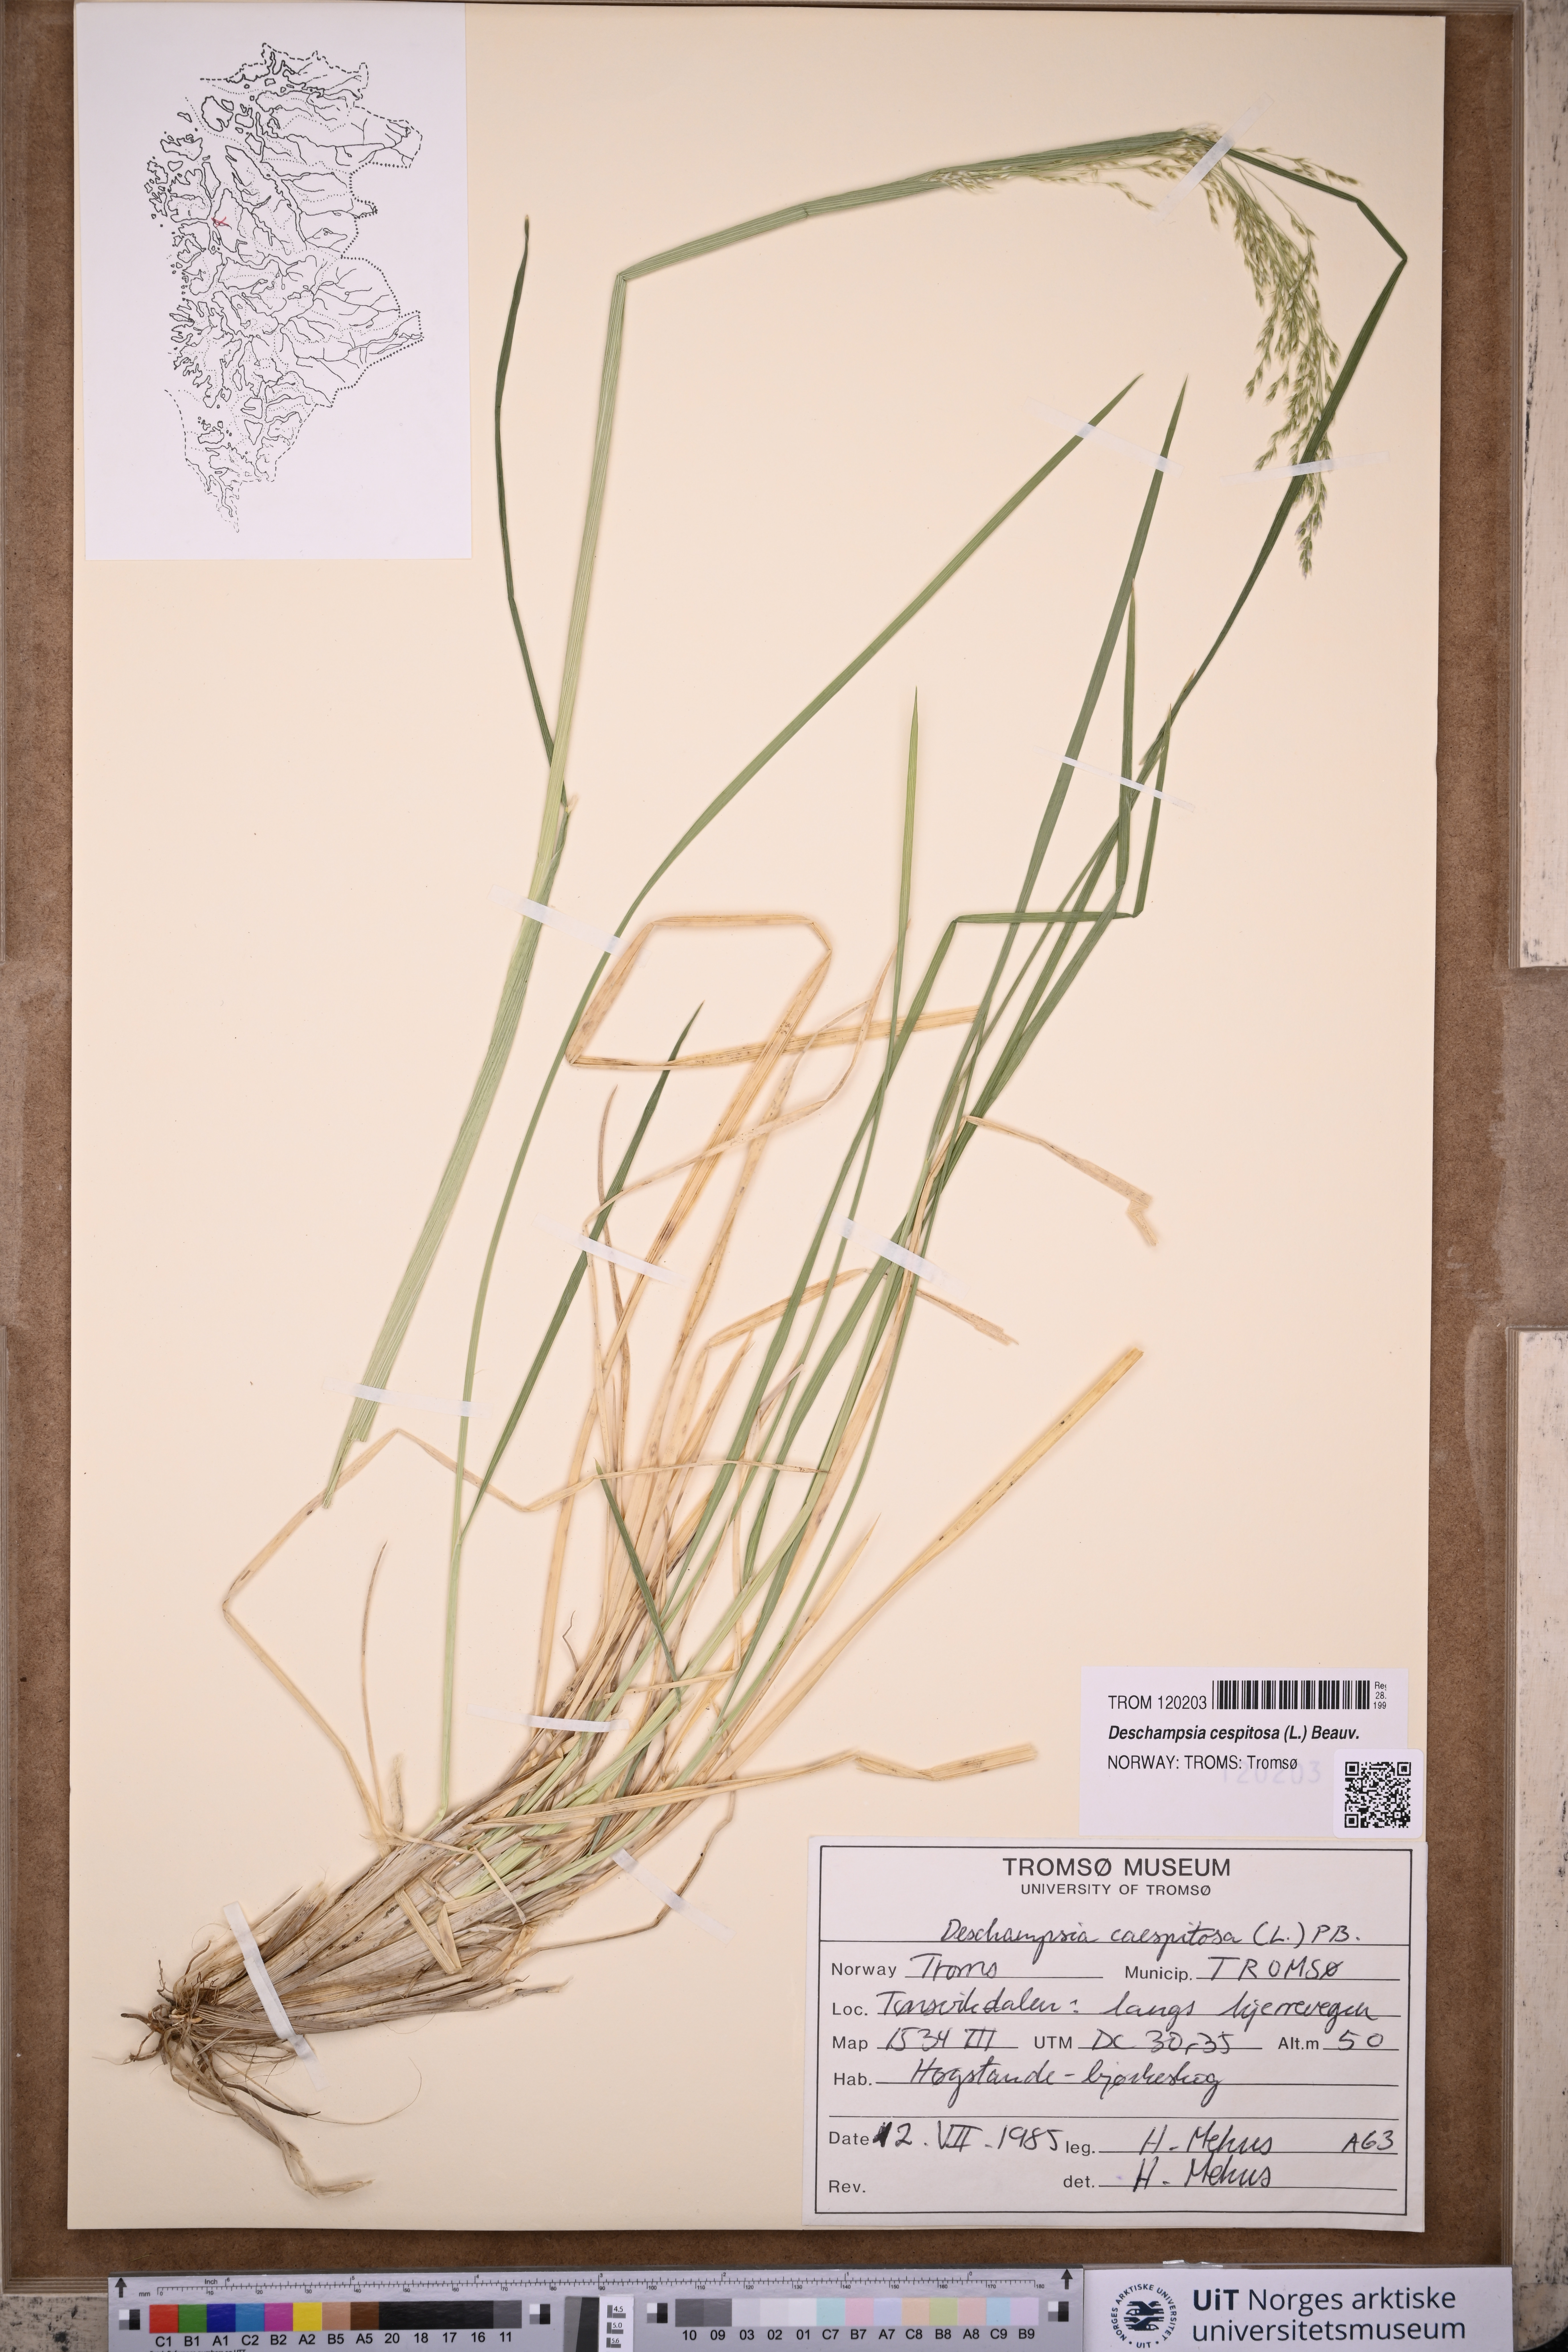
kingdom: Plantae
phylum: Tracheophyta
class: Liliopsida
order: Poales
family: Poaceae
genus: Deschampsia
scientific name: Deschampsia cespitosa
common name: Tufted hair-grass
